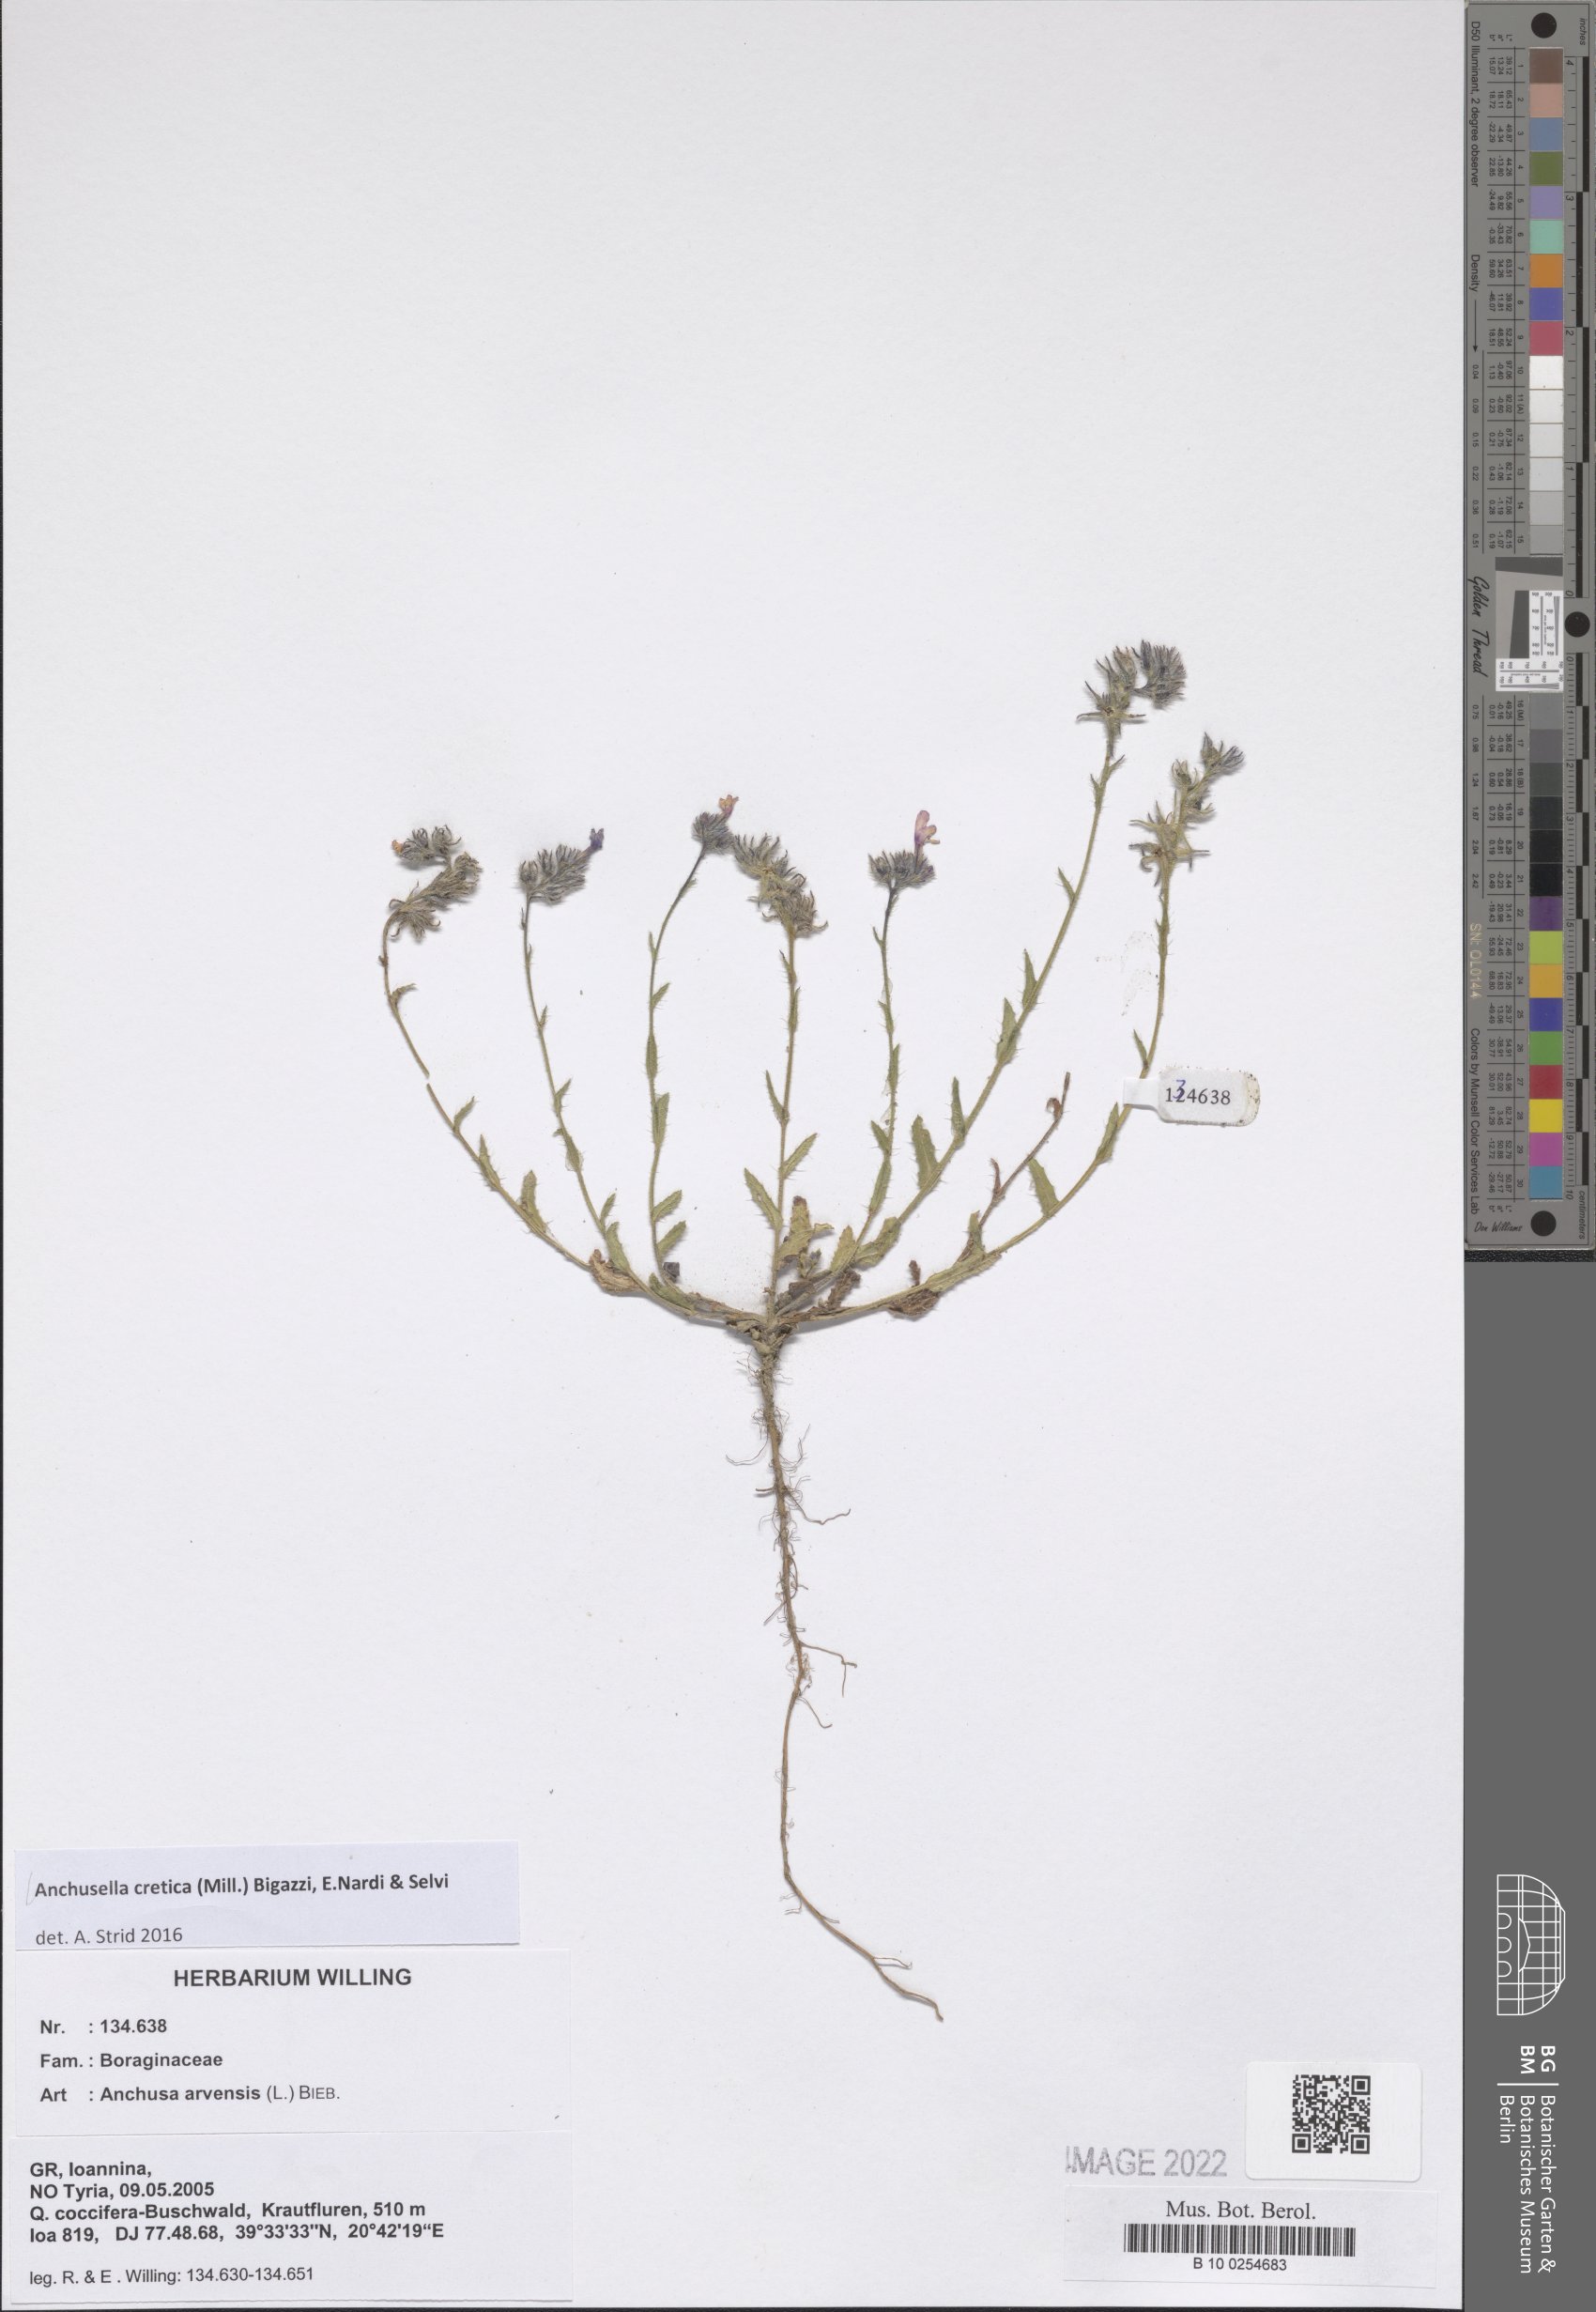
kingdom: Plantae
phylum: Tracheophyta
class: Magnoliopsida
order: Boraginales
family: Boraginaceae
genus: Anchusella
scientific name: Anchusella cretica
